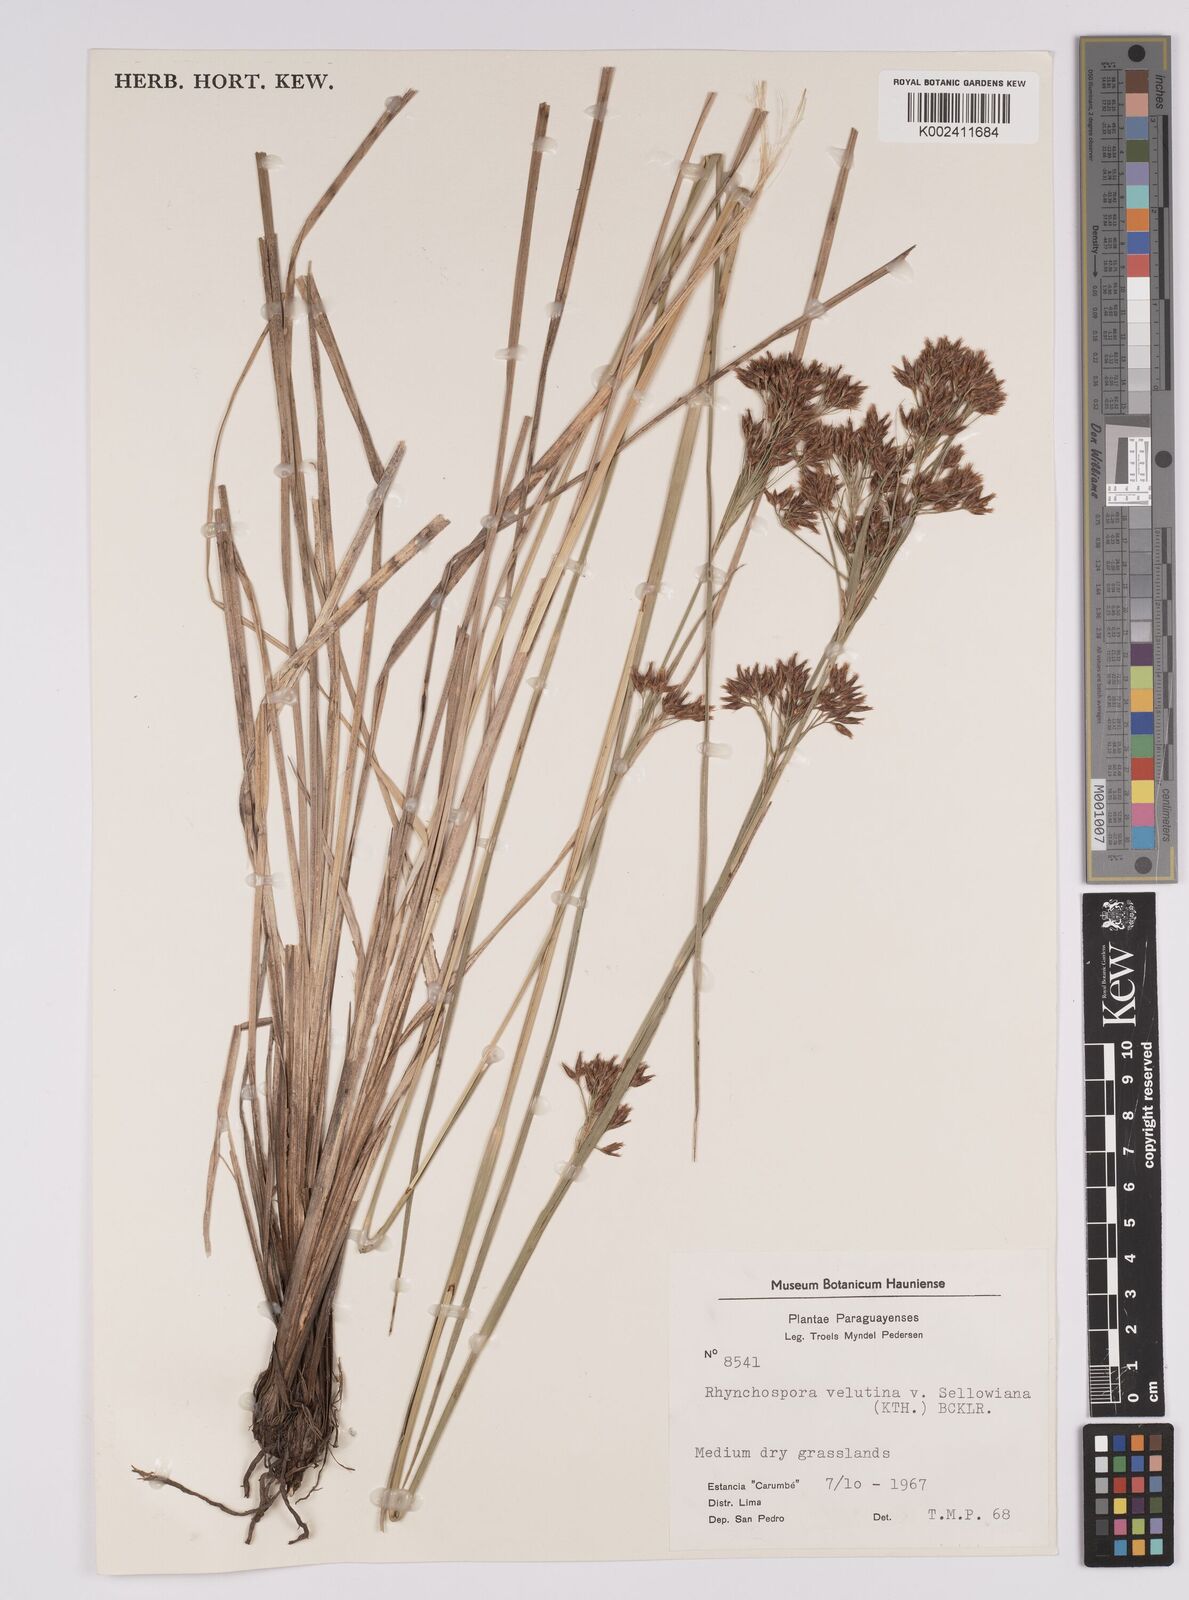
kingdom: Plantae
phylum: Tracheophyta
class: Liliopsida
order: Poales
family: Cyperaceae
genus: Rhynchospora
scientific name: Rhynchospora velutina
